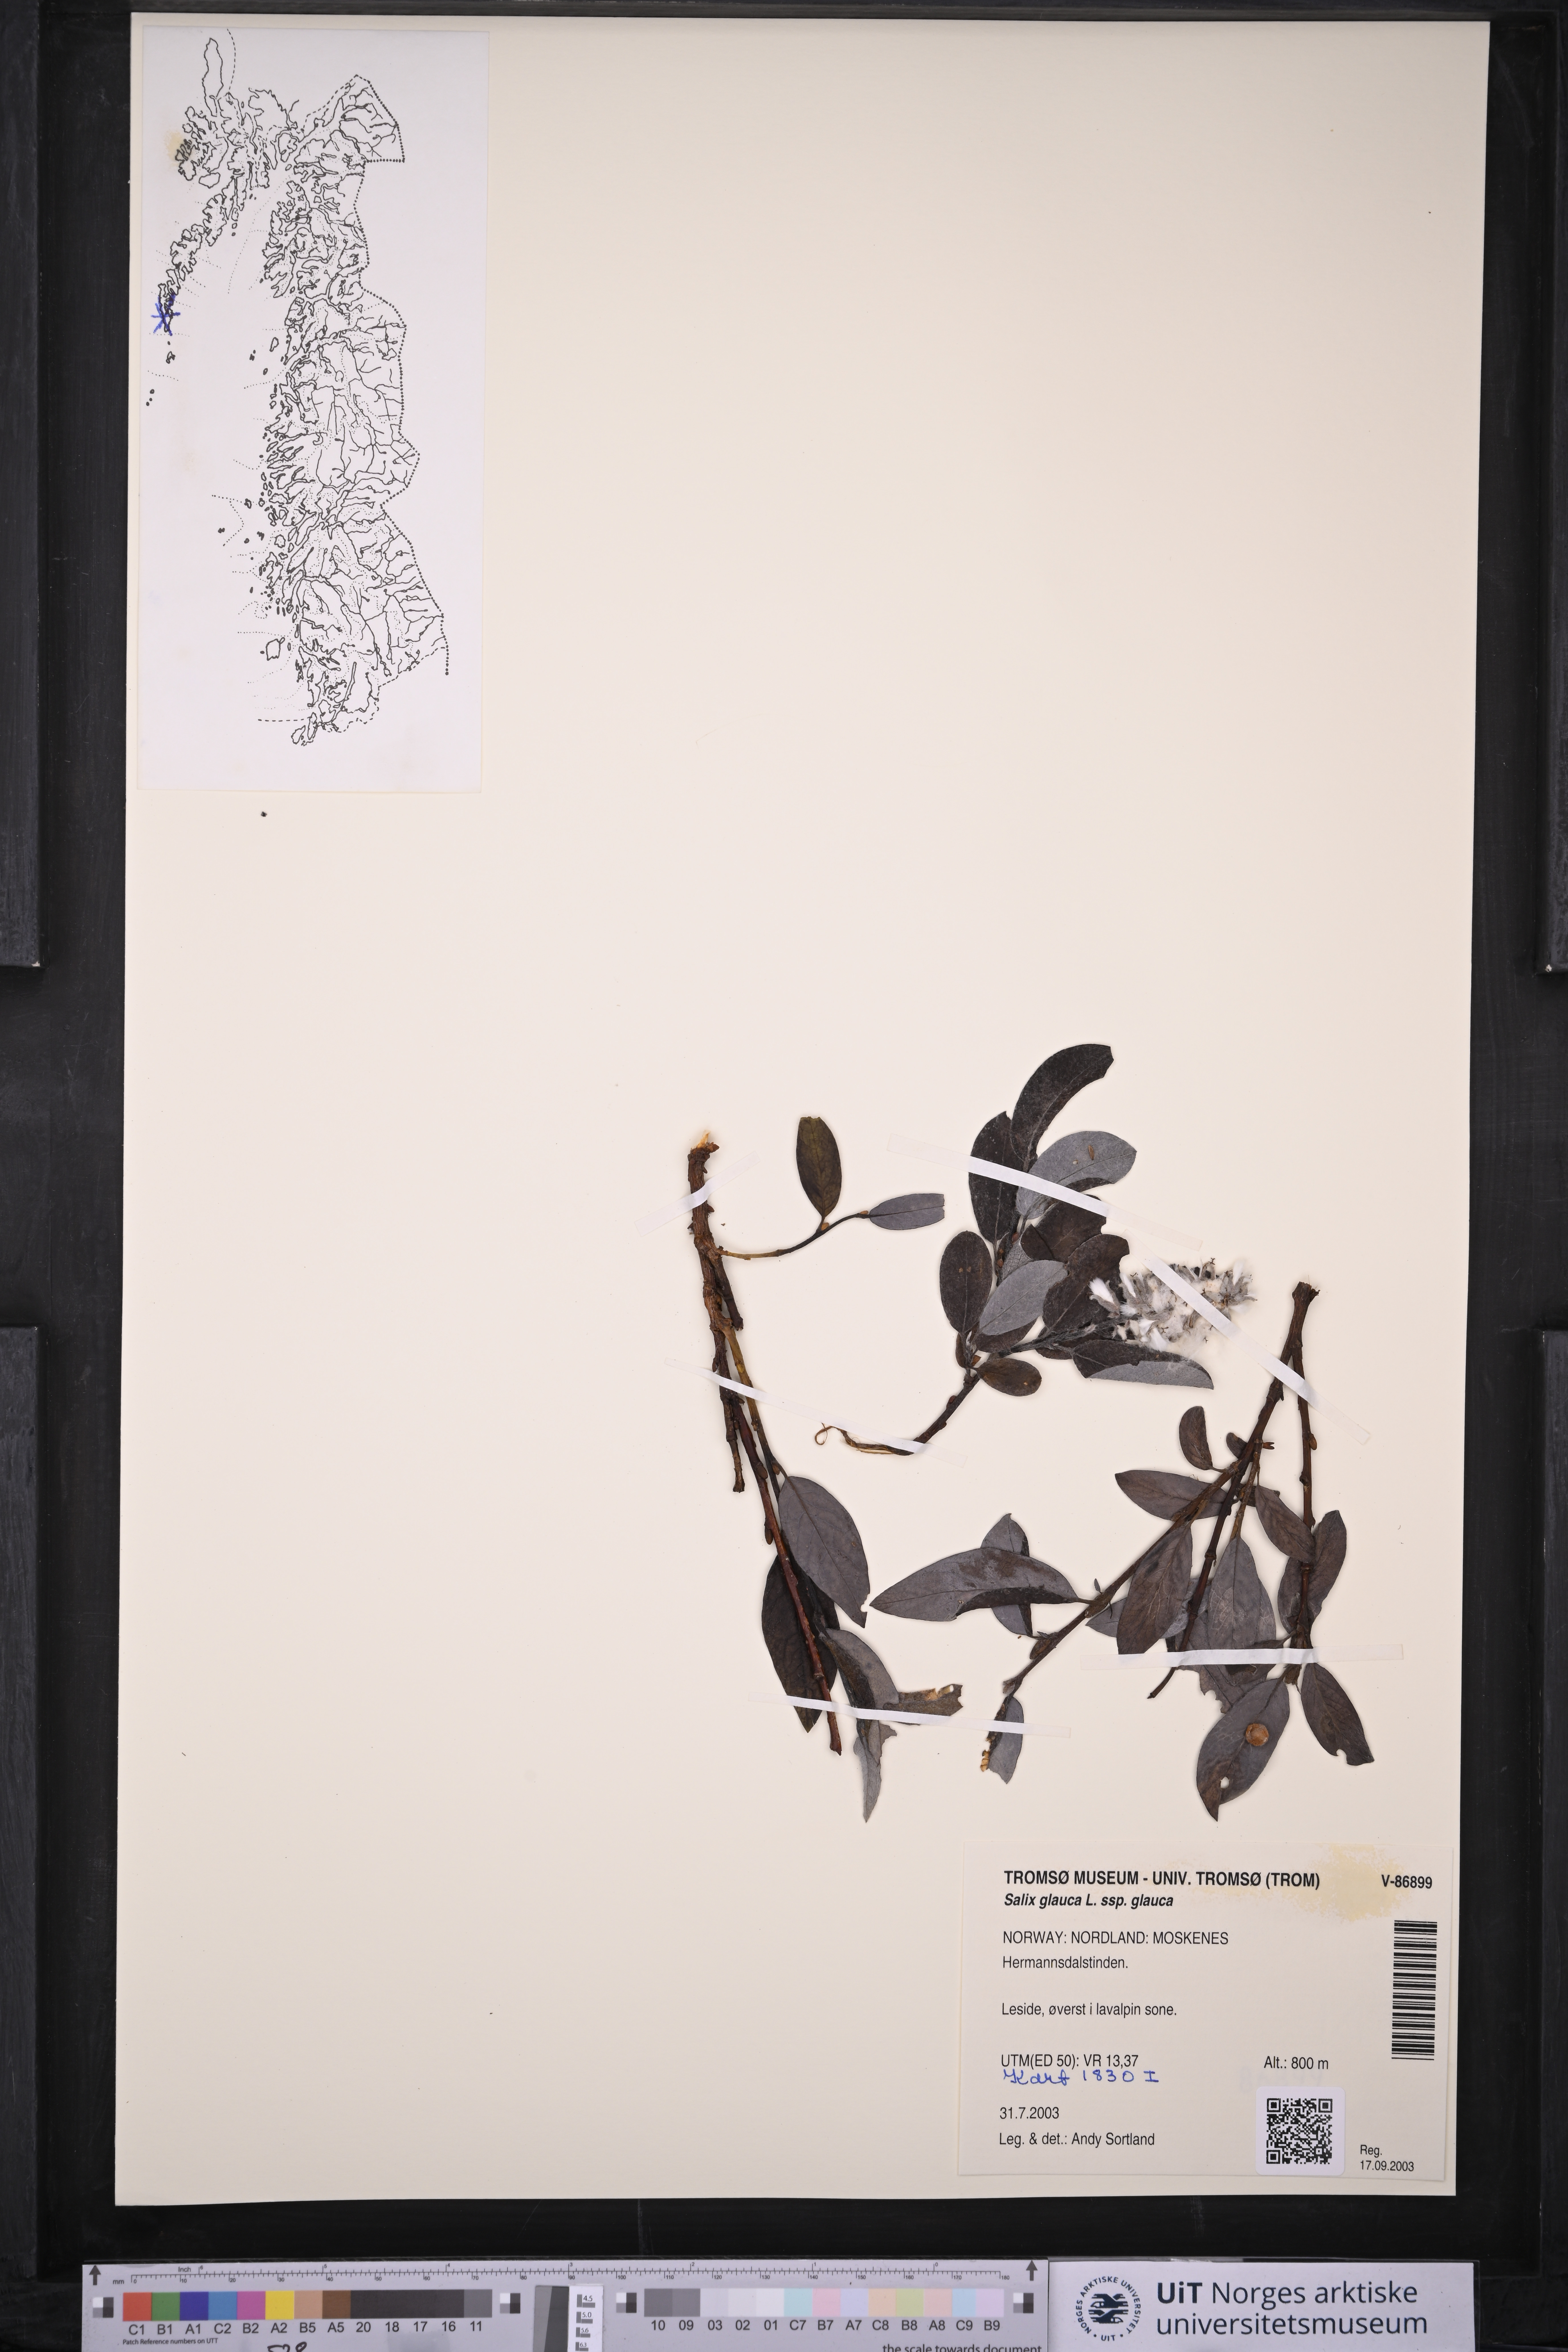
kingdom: Plantae
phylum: Tracheophyta
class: Magnoliopsida
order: Malpighiales
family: Salicaceae
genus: Salix
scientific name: Salix glauca
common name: Glaucous willow
